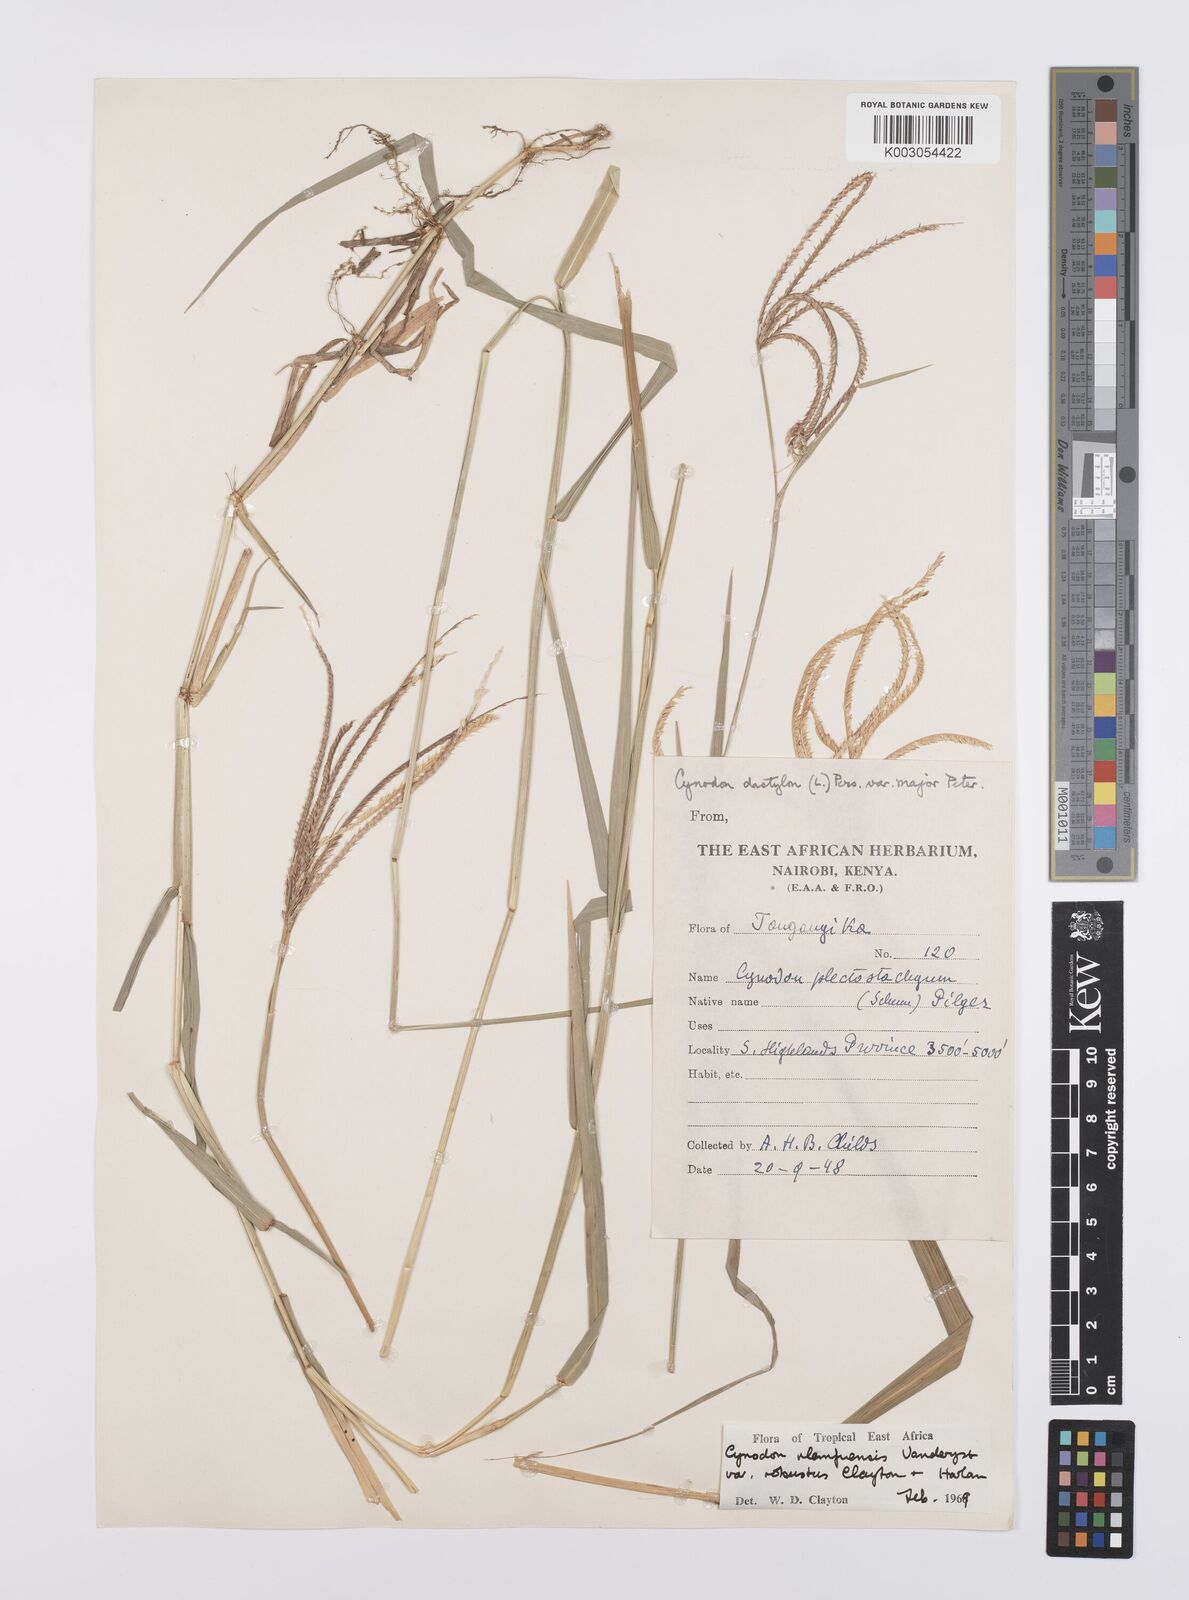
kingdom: Plantae
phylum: Tracheophyta
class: Liliopsida
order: Poales
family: Poaceae
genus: Cynodon
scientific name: Cynodon nlemfuensis
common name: African bermudagrass
